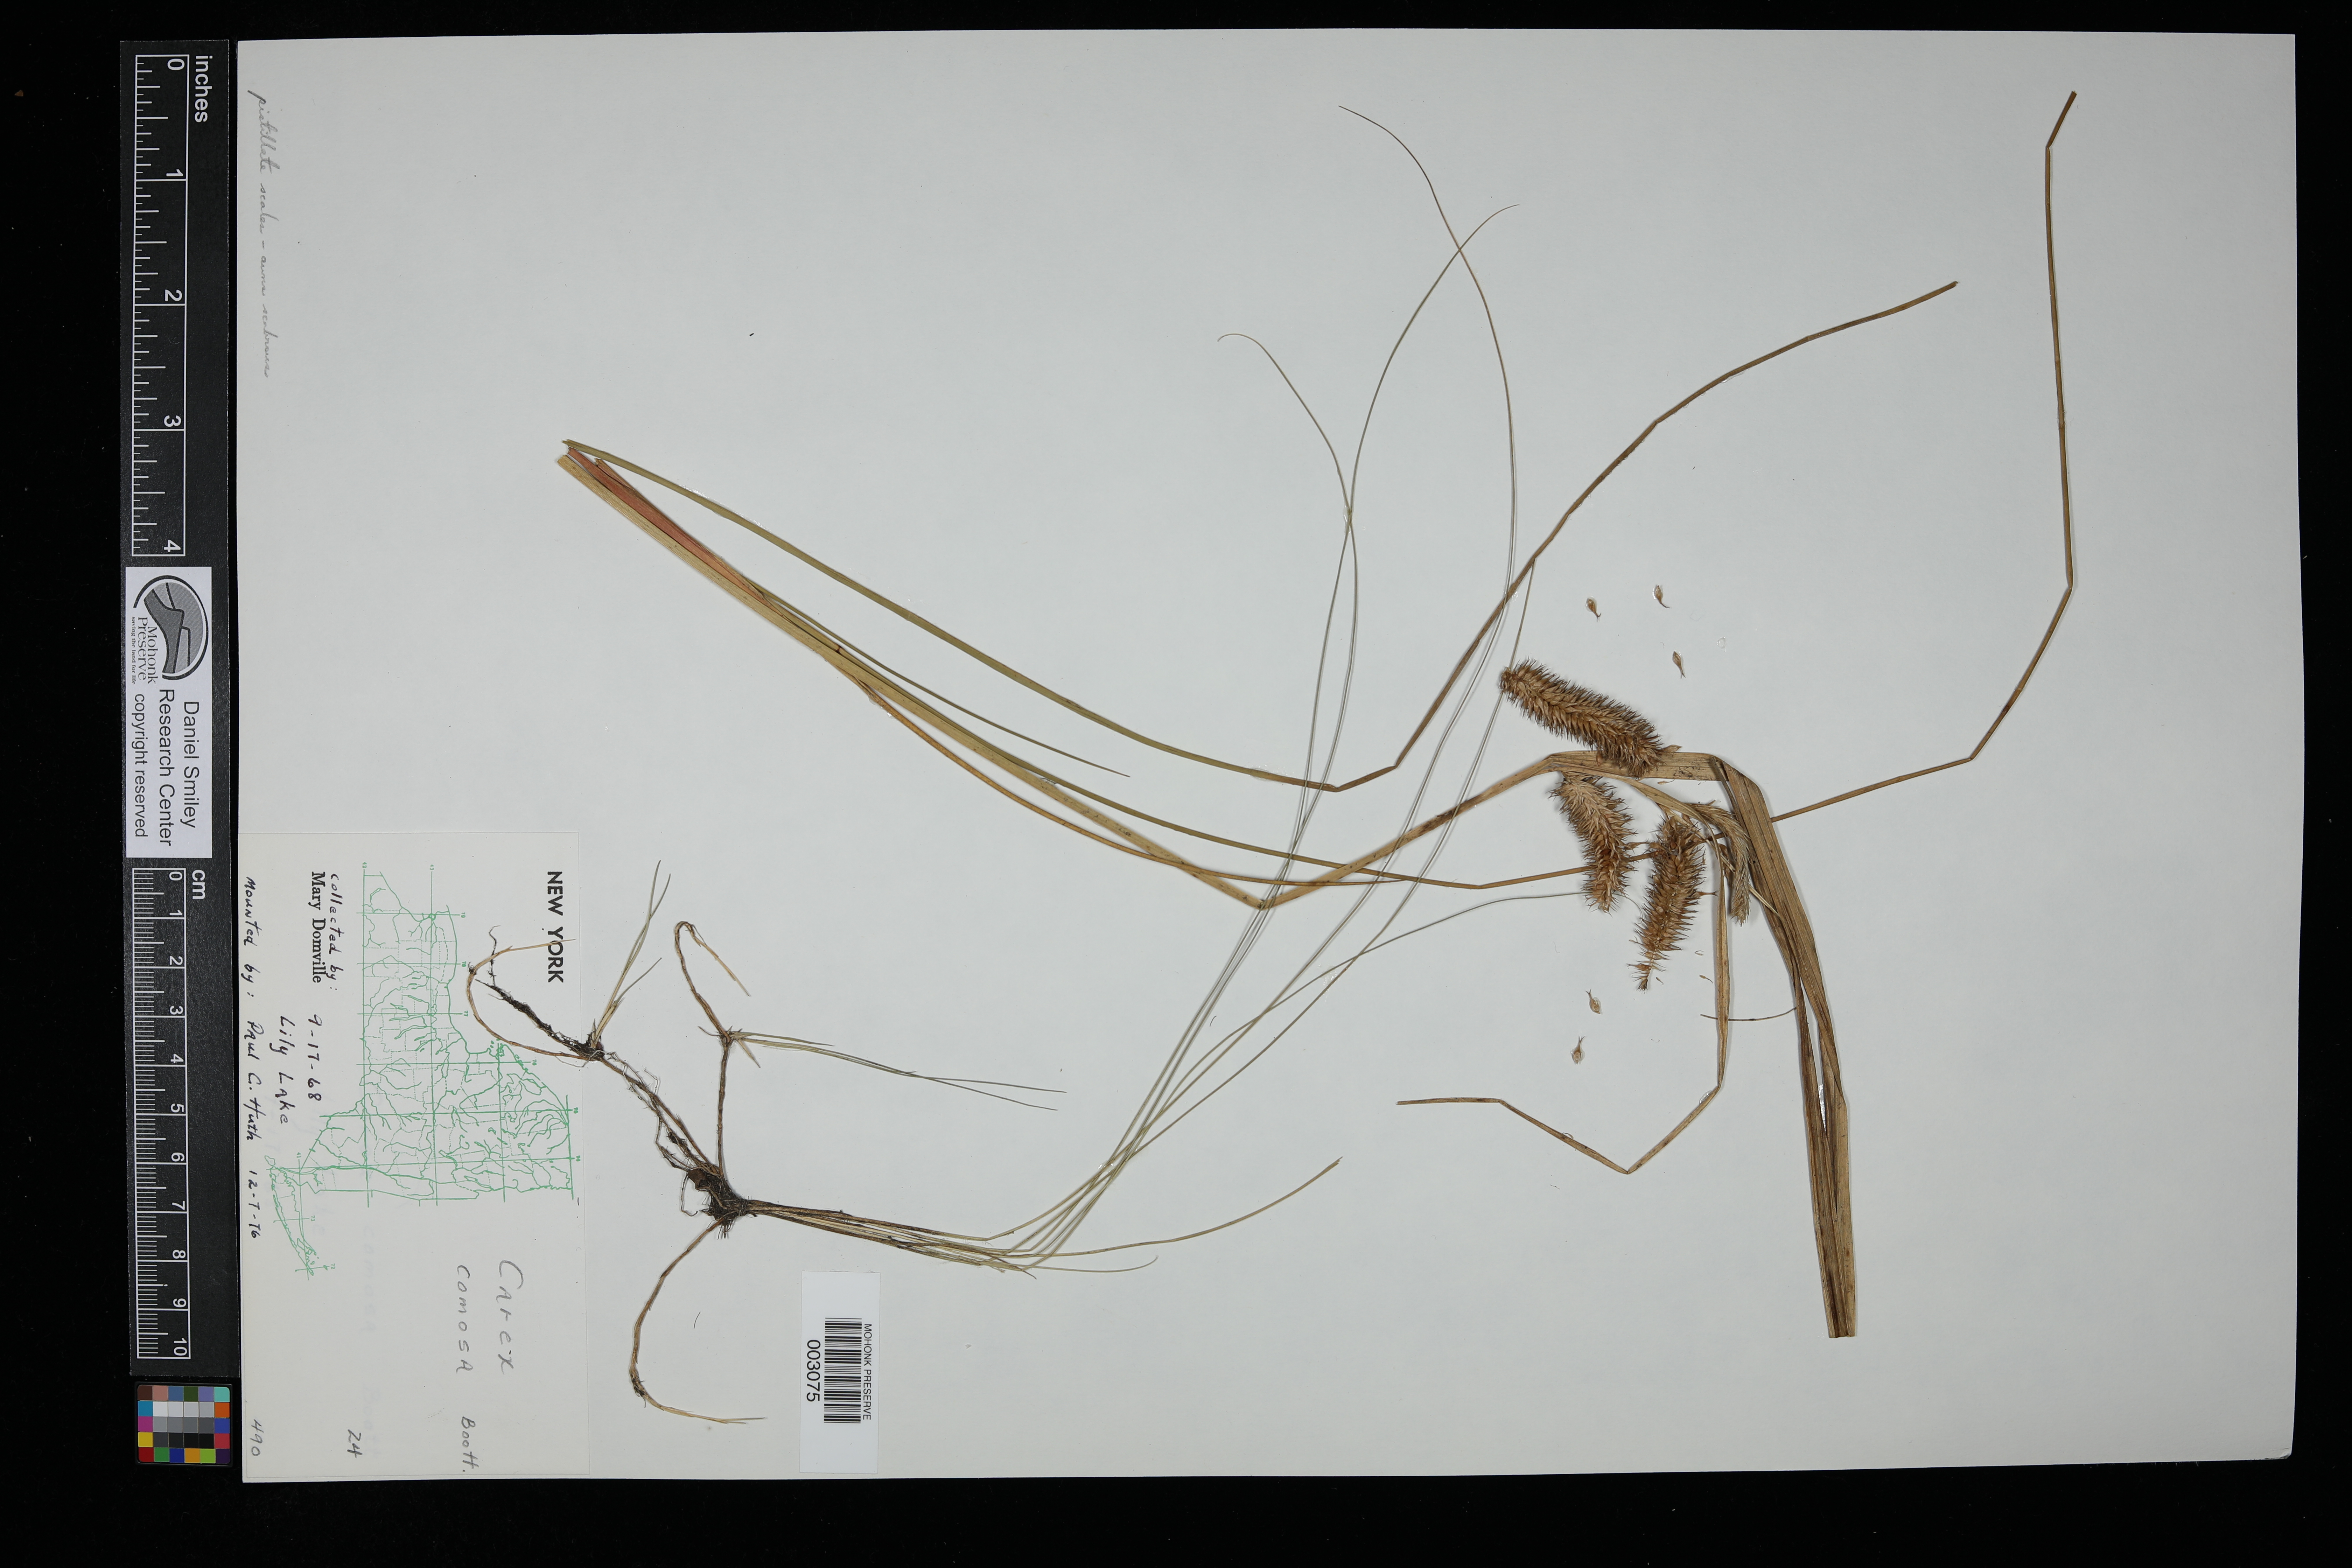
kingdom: Plantae
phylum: Tracheophyta
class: Liliopsida
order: Poales
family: Cyperaceae
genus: Carex
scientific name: Carex comosa
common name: Bristly sedge
